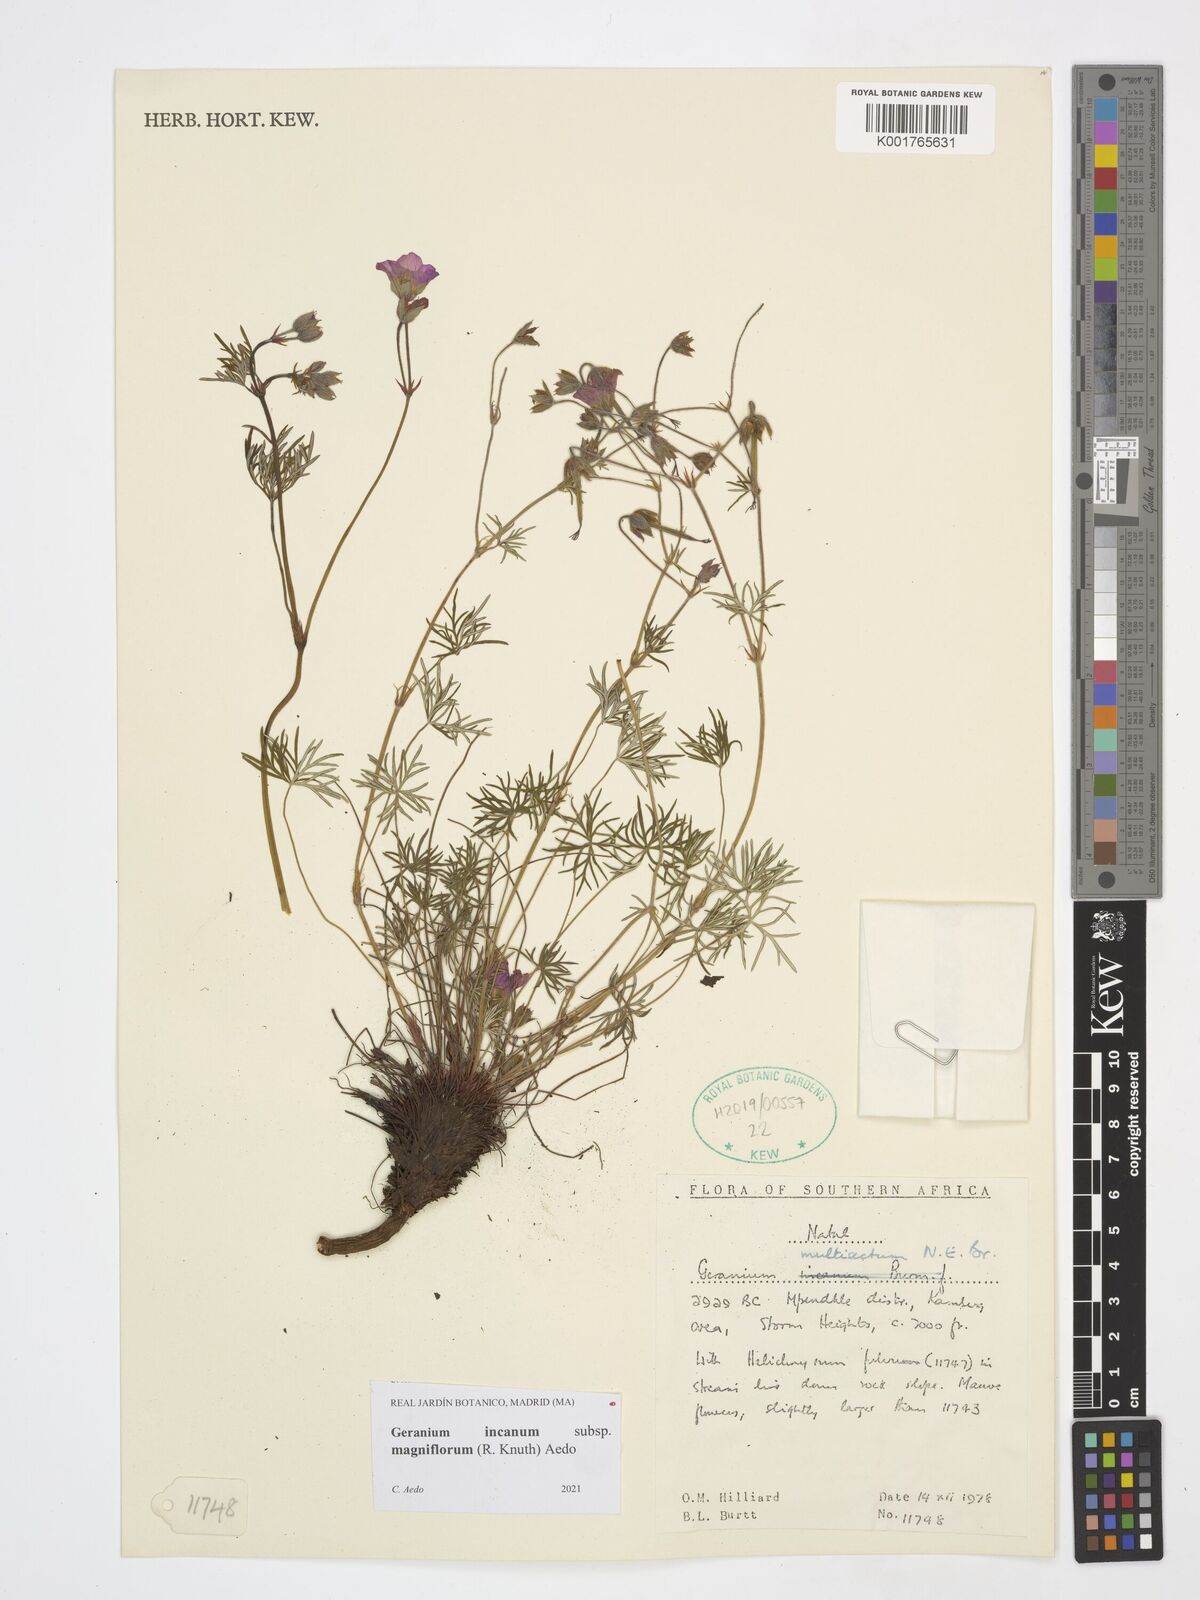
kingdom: Plantae
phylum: Tracheophyta
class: Magnoliopsida
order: Geraniales
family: Geraniaceae
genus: Geranium
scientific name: Geranium incanum
